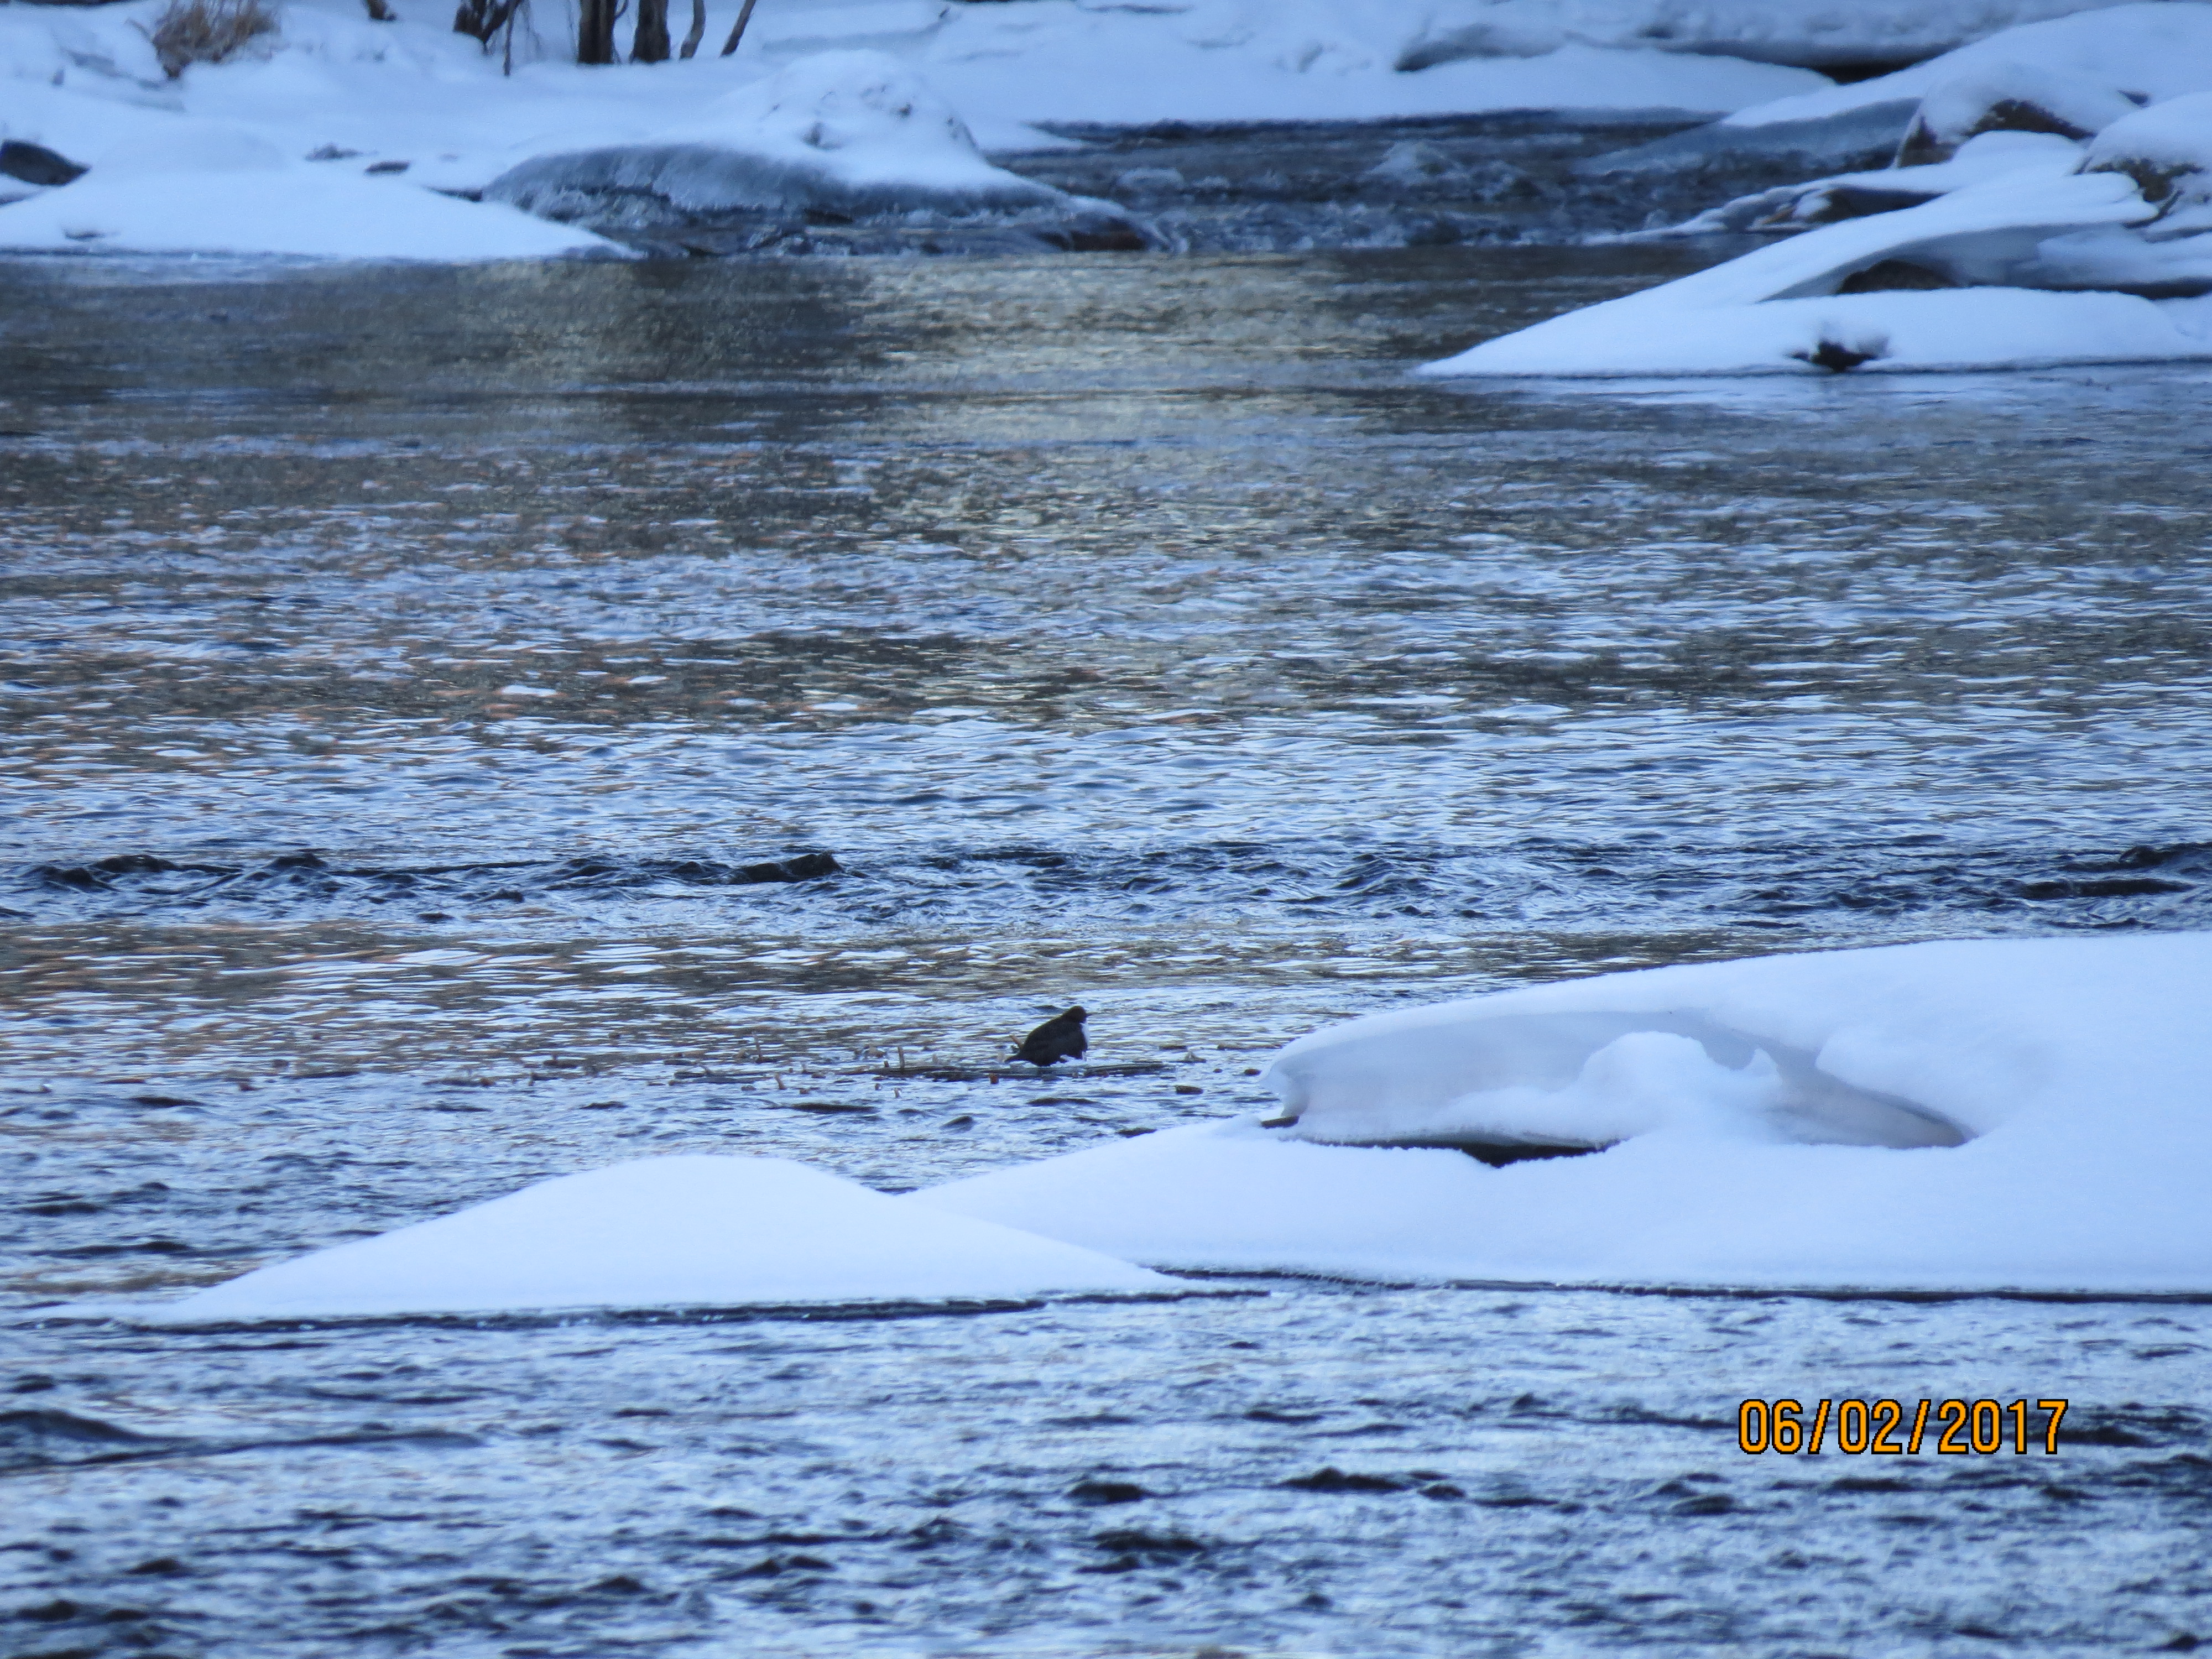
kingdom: Animalia
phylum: Chordata
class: Aves
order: Passeriformes
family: Cinclidae
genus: Cinclus
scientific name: Cinclus cinclus
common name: White-throated dipper
